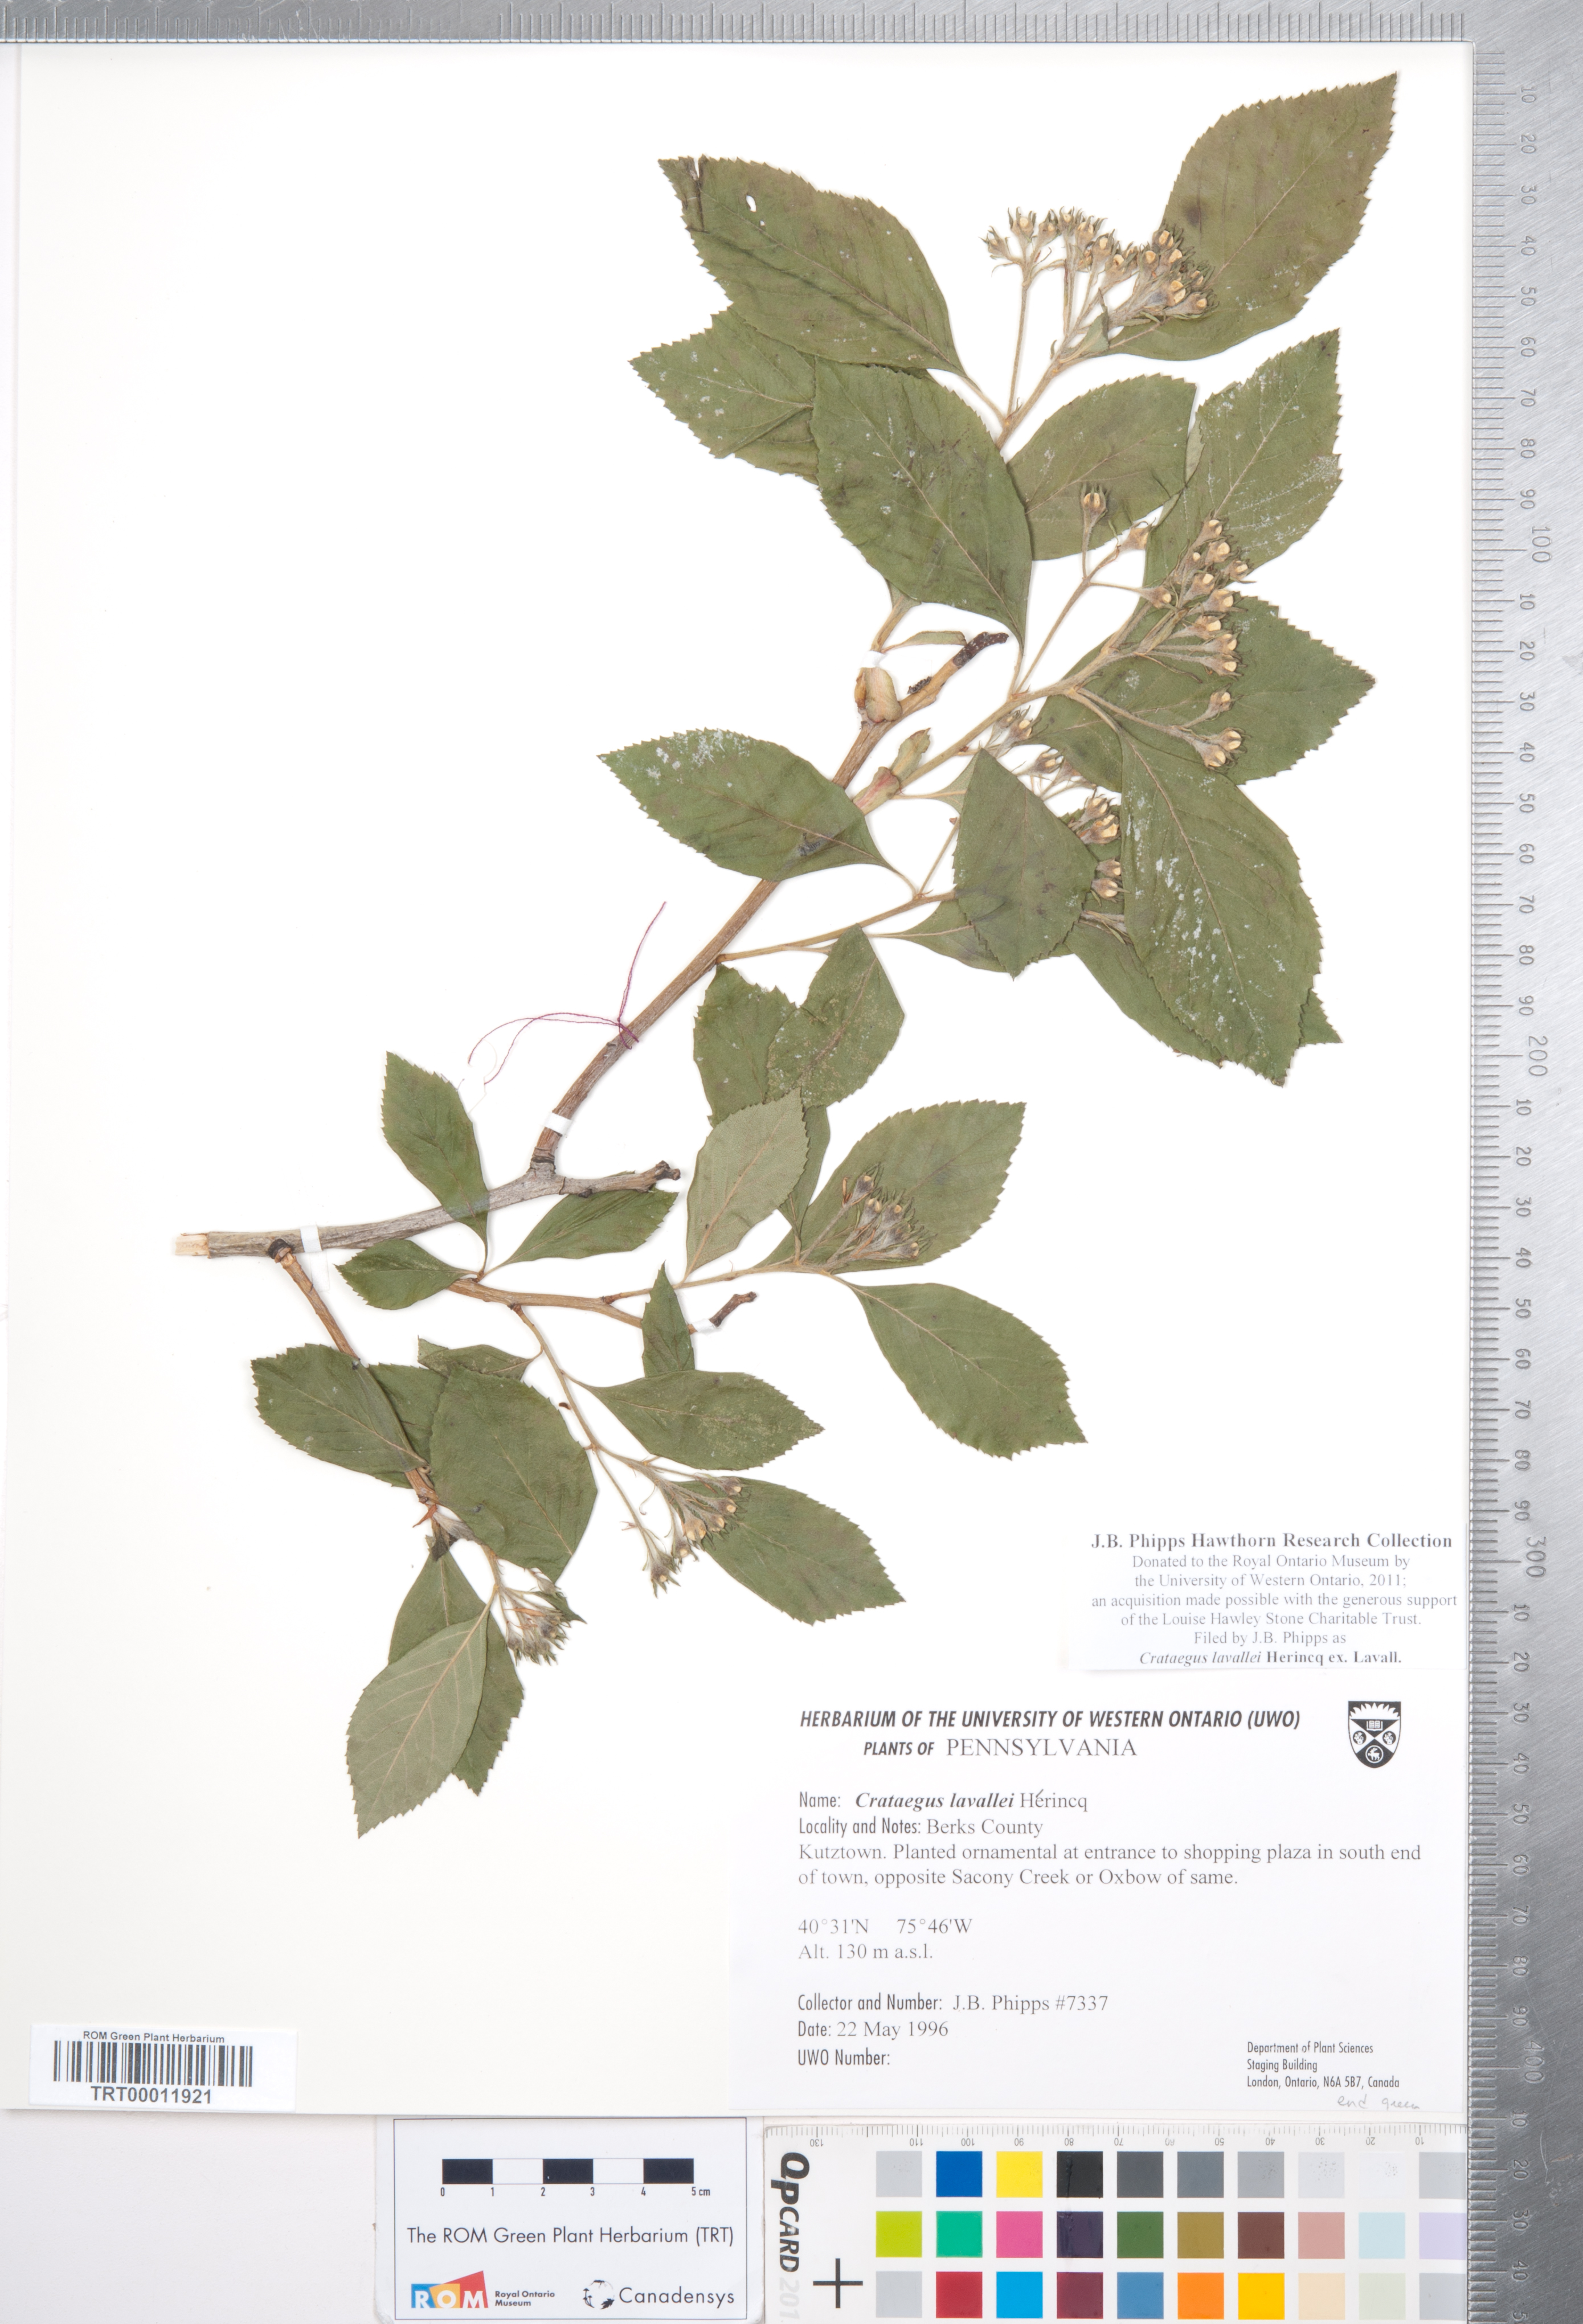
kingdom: Plantae
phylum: Tracheophyta
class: Magnoliopsida
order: Rosales
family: Rosaceae
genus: Crataegus
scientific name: Crataegus lavallei
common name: Lavell hawthorn
